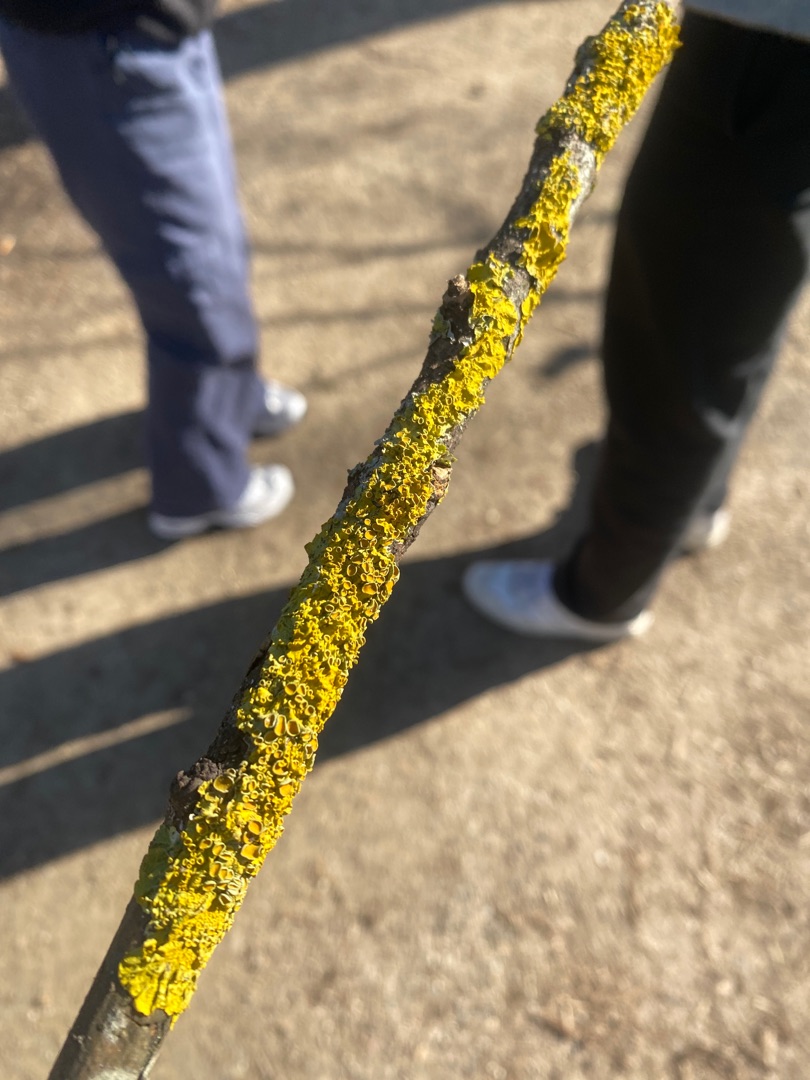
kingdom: Fungi
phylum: Ascomycota
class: Lecanoromycetes
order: Teloschistales
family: Teloschistaceae
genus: Xanthoria
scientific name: Xanthoria parietina
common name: Almindelig væggelav
